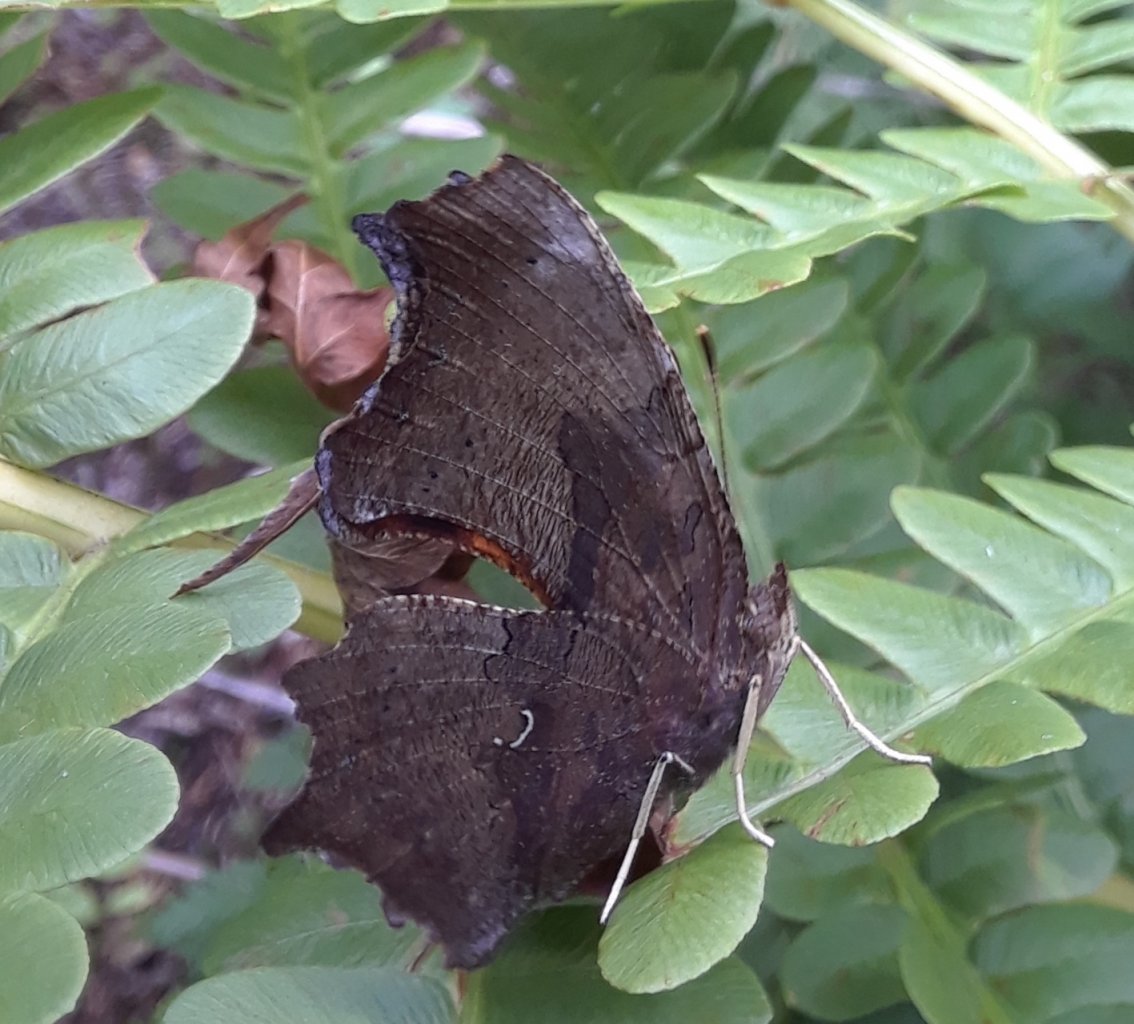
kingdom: Animalia
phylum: Arthropoda
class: Insecta
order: Lepidoptera
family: Nymphalidae
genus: Polygonia
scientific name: Polygonia interrogationis
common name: Question Mark
